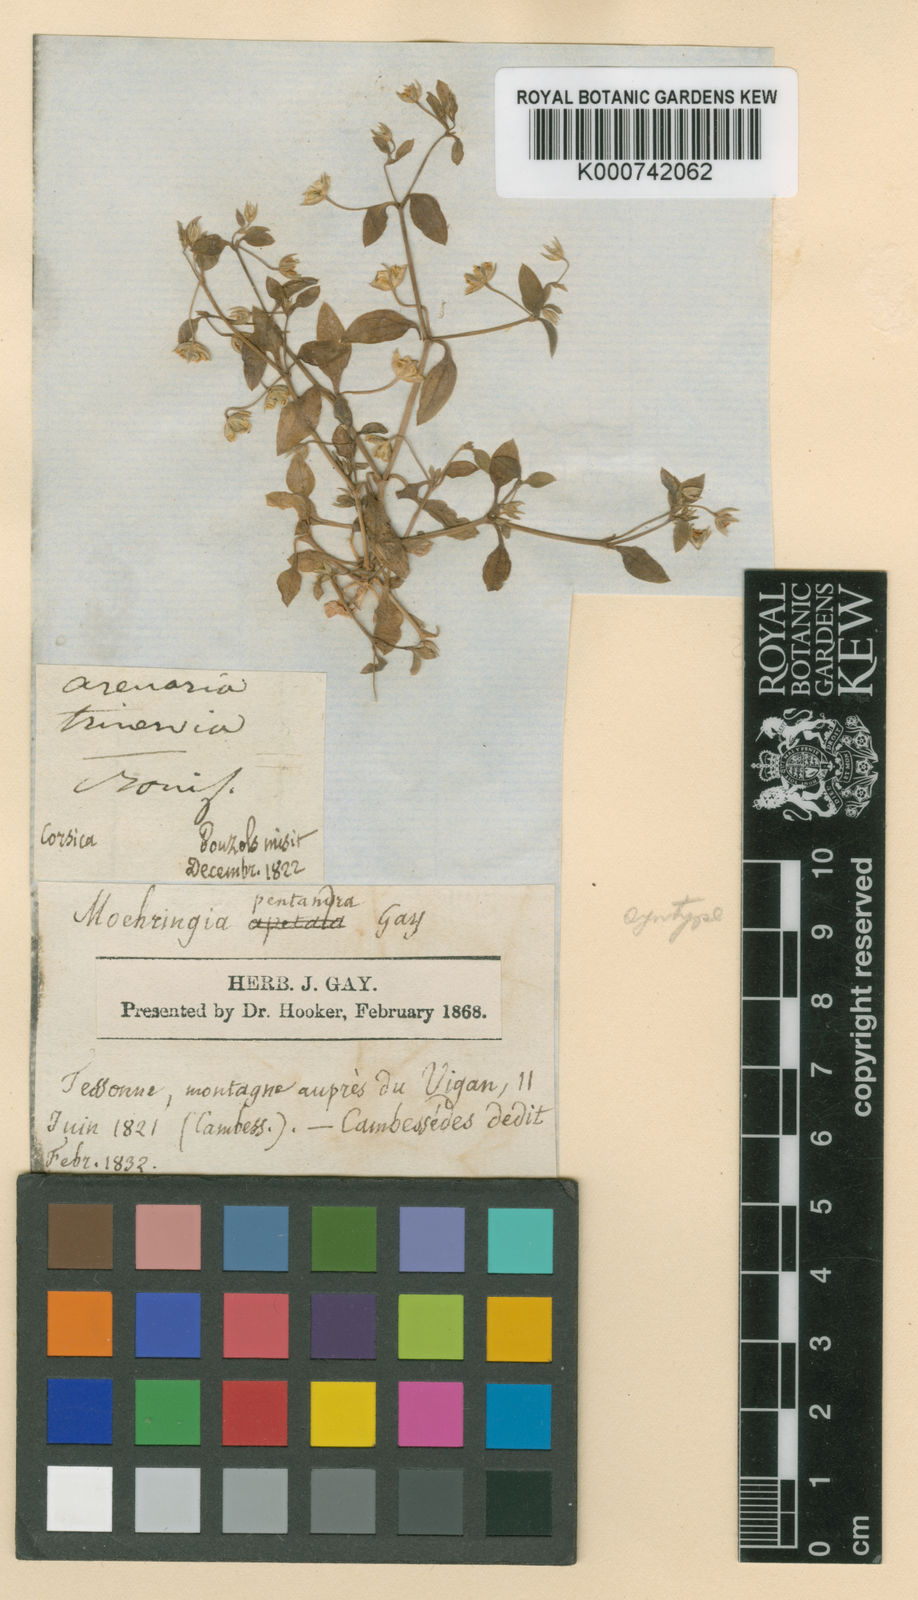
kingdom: Plantae
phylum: Tracheophyta
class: Magnoliopsida
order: Caryophyllales
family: Caryophyllaceae
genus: Moehringia
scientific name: Moehringia pentandra
